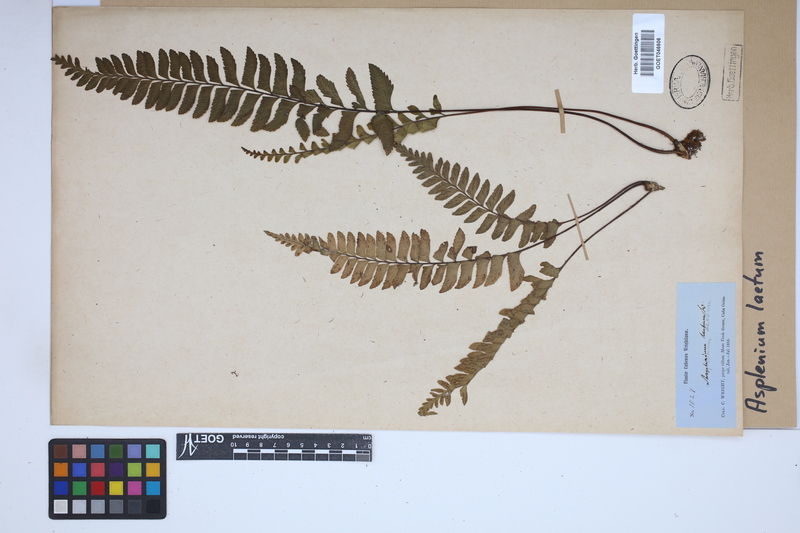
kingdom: Plantae
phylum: Tracheophyta
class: Polypodiopsida
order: Polypodiales
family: Aspleniaceae
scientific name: Aspleniaceae
